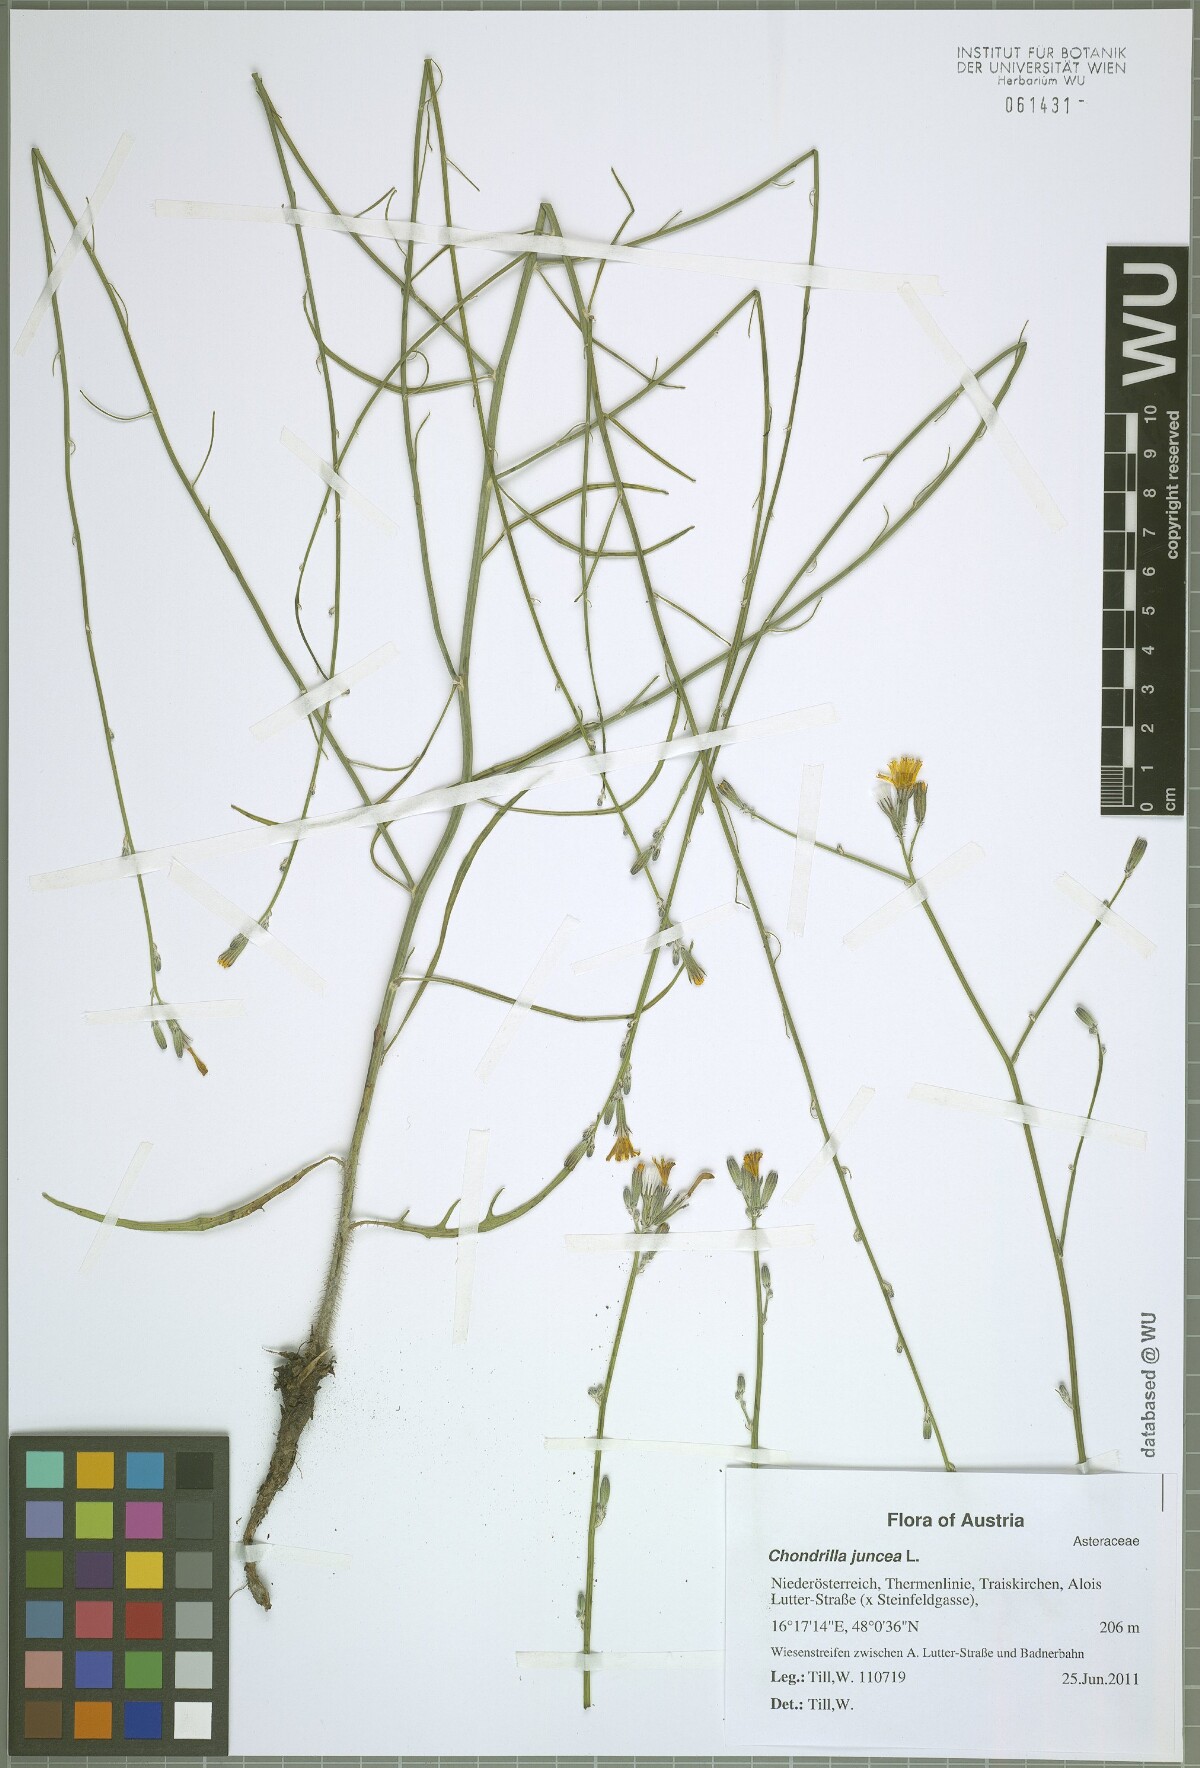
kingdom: Plantae
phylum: Tracheophyta
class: Magnoliopsida
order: Asterales
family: Asteraceae
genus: Chondrilla
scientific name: Chondrilla juncea
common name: Skeleton weed
